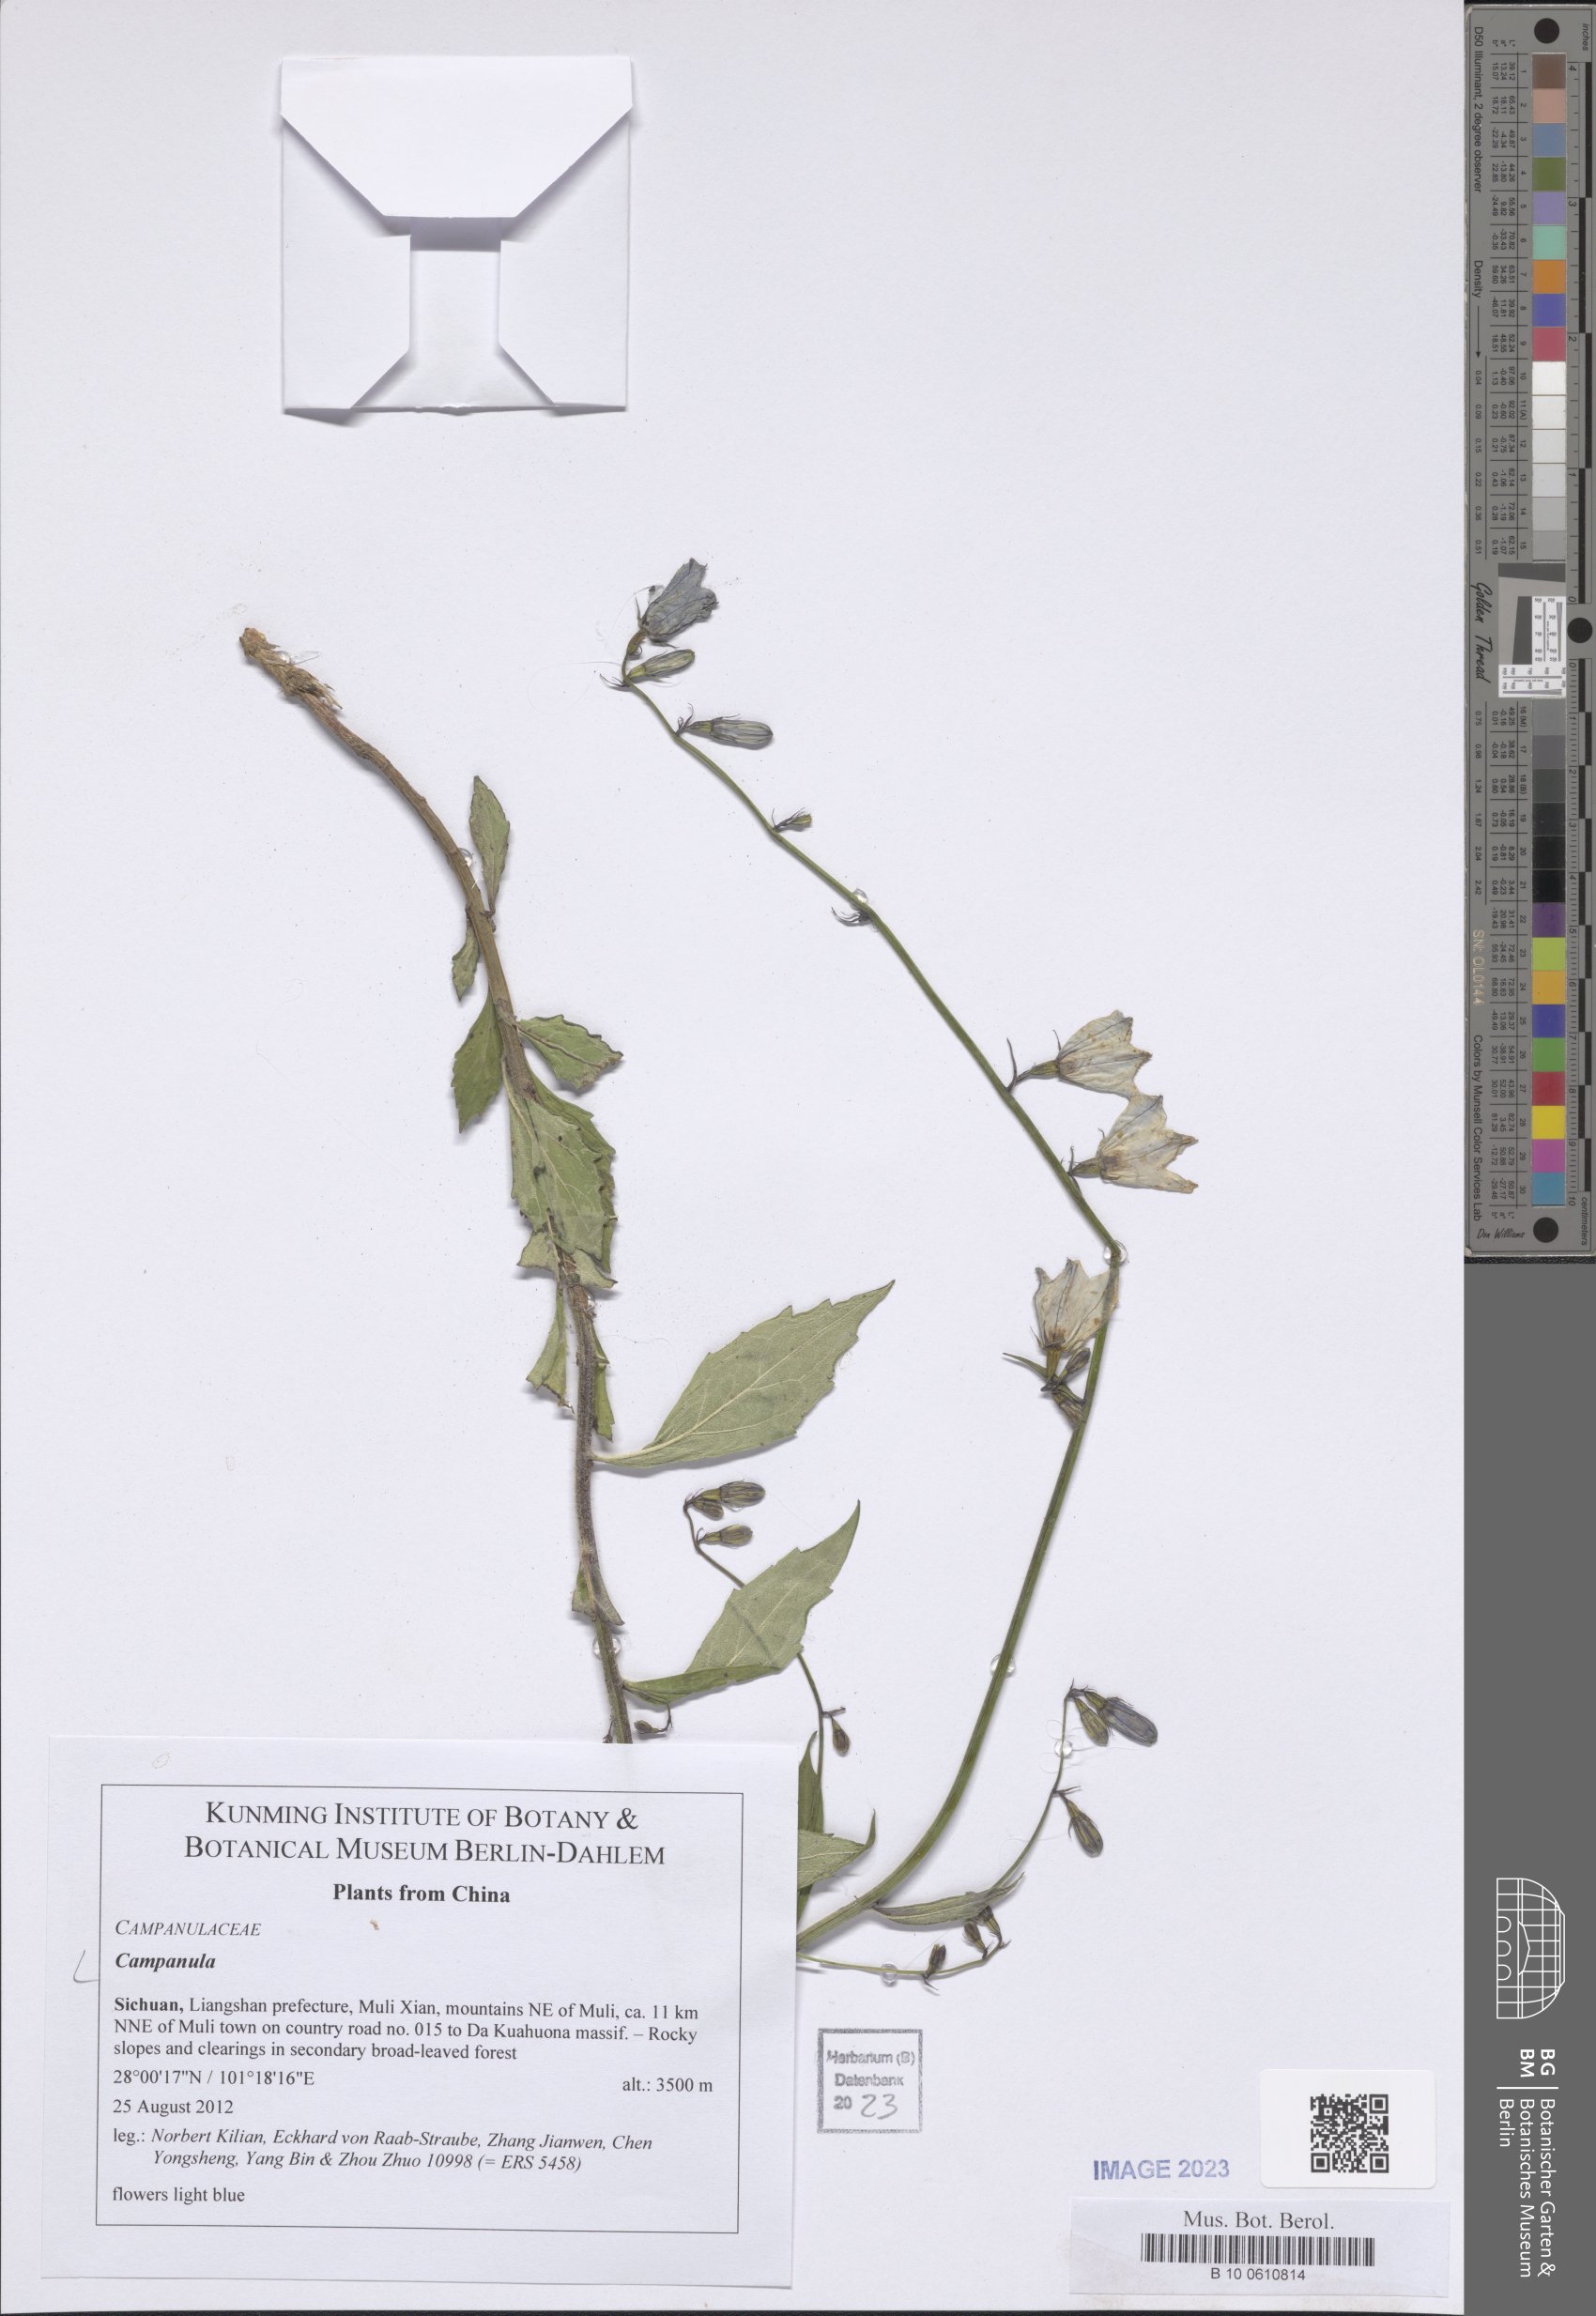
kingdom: Plantae
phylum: Tracheophyta
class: Magnoliopsida
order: Asterales
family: Campanulaceae
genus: Campanula
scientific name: Campanula
